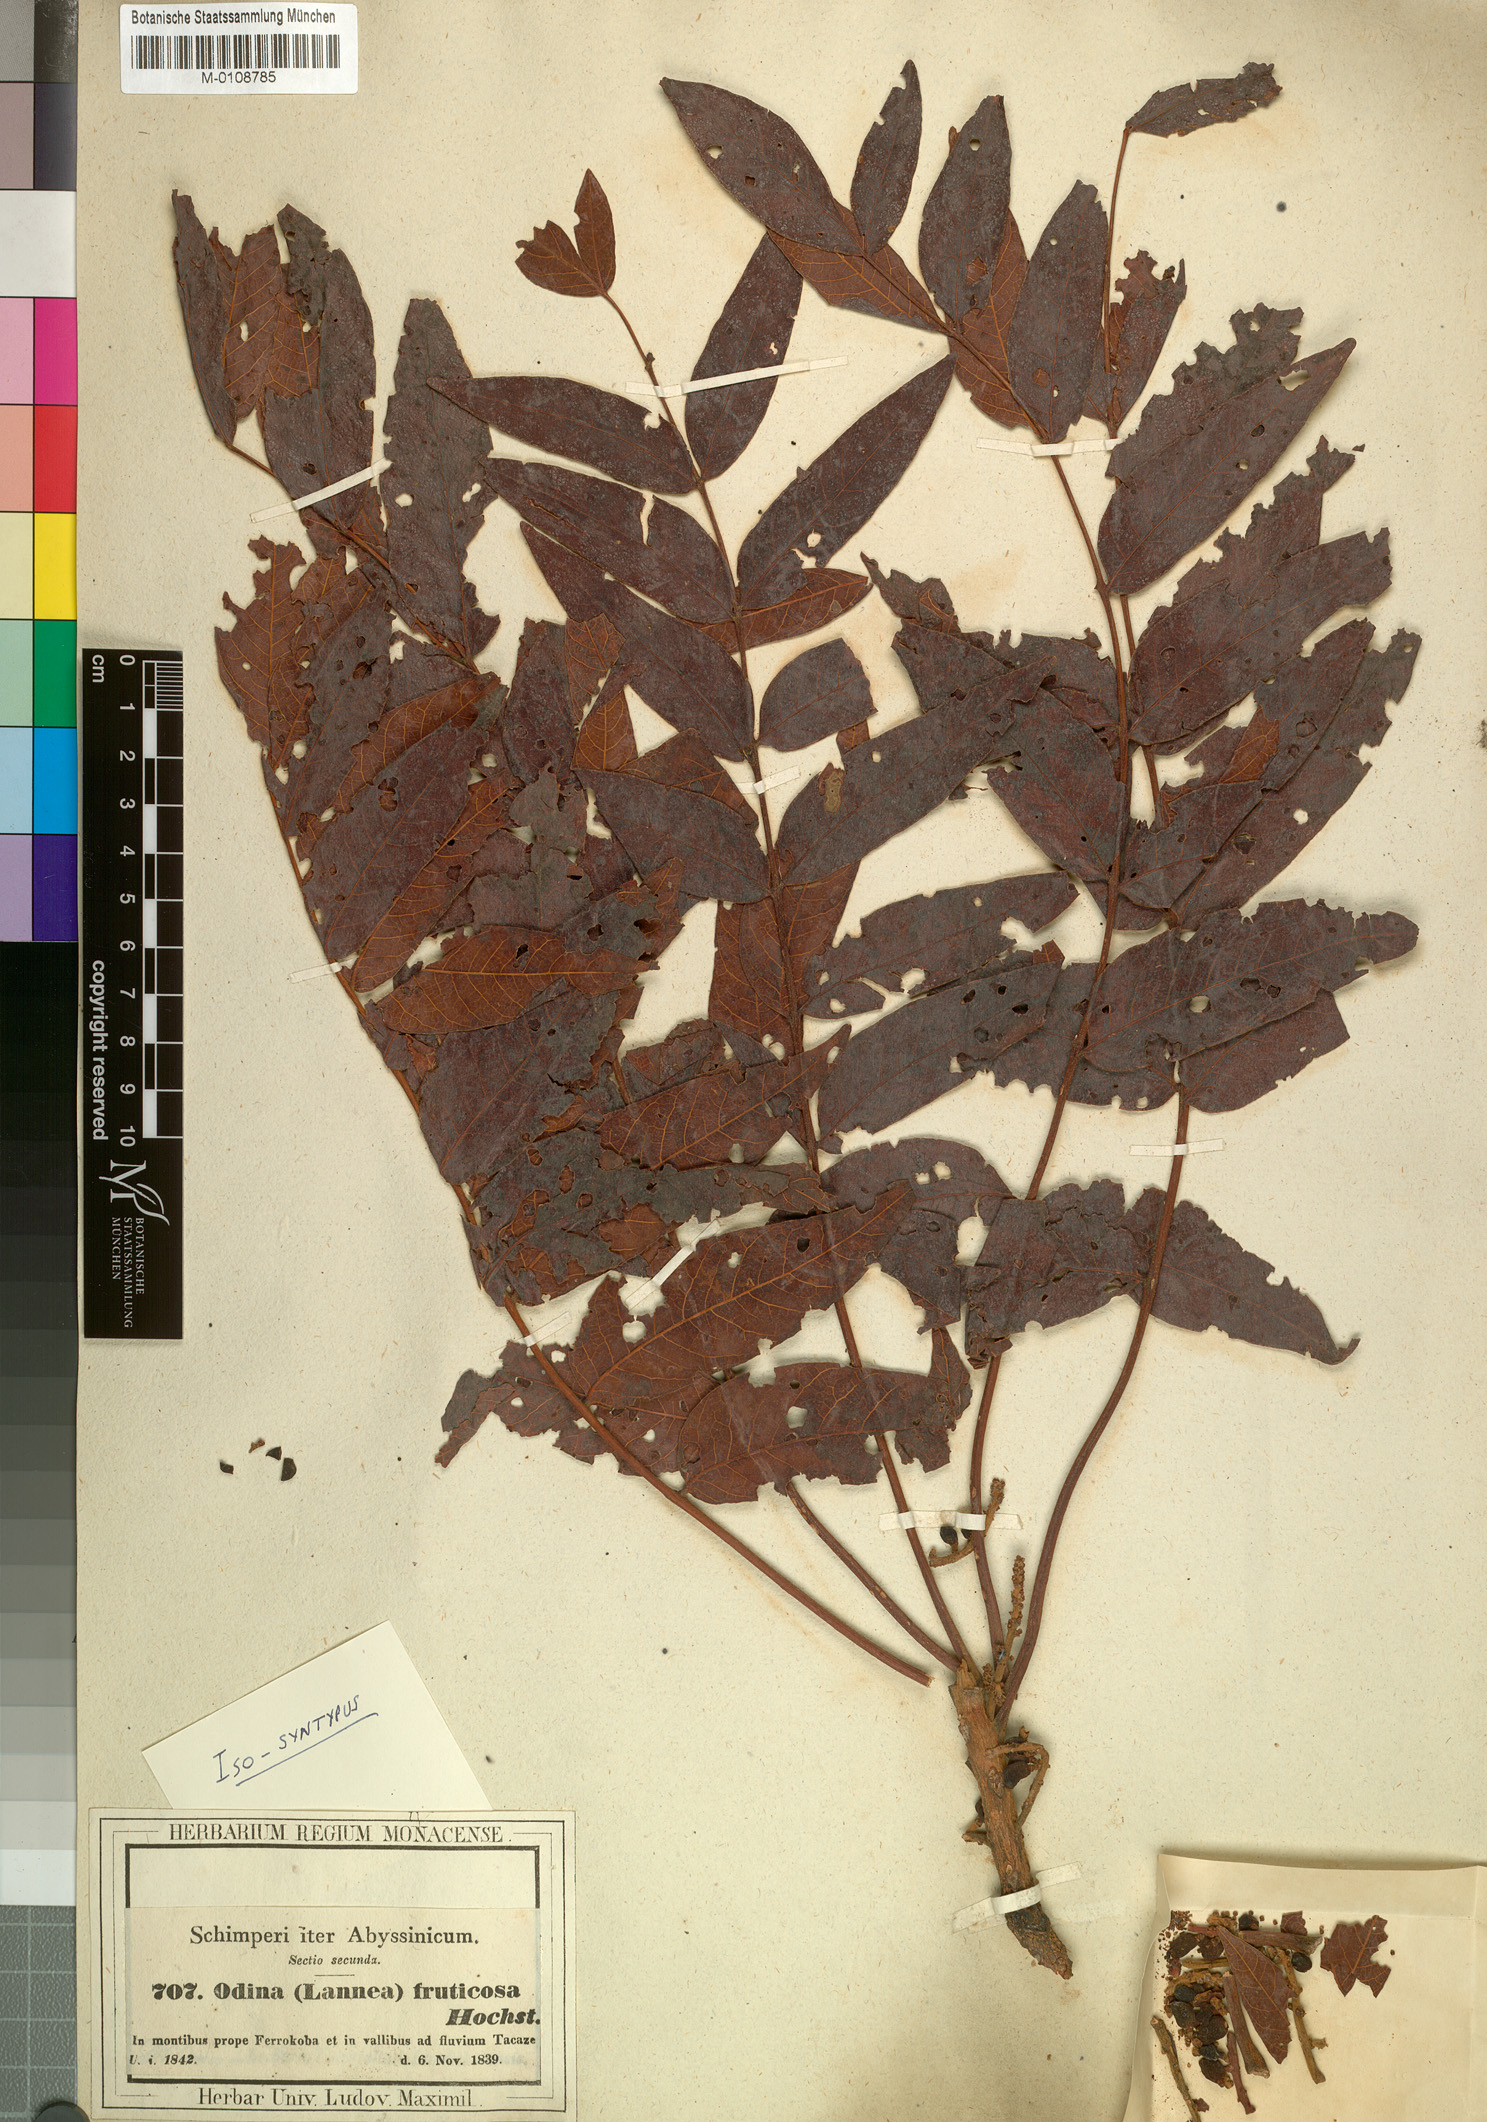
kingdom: Plantae
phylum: Tracheophyta
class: Magnoliopsida
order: Sapindales
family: Anacardiaceae
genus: Lannea
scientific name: Lannea fruticosa
